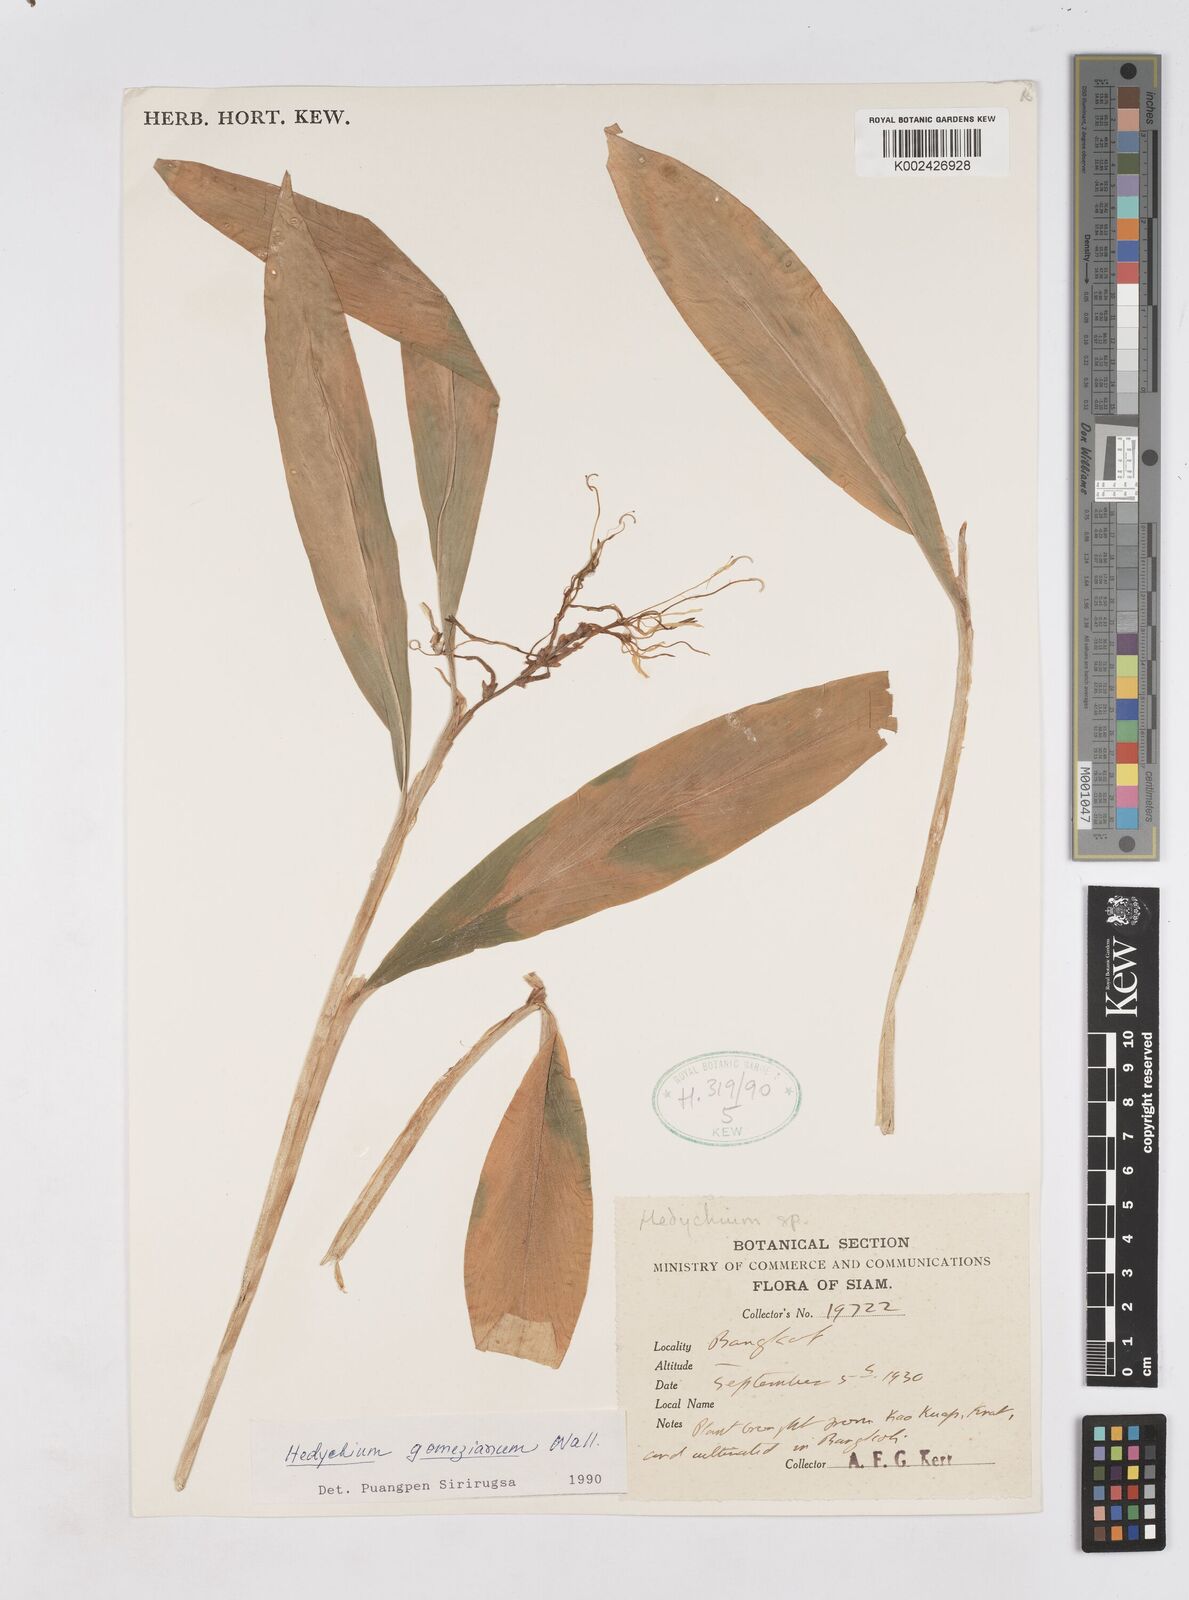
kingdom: Plantae
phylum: Tracheophyta
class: Liliopsida
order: Zingiberales
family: Zingiberaceae
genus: Hedychium
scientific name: Hedychium gomezianum
